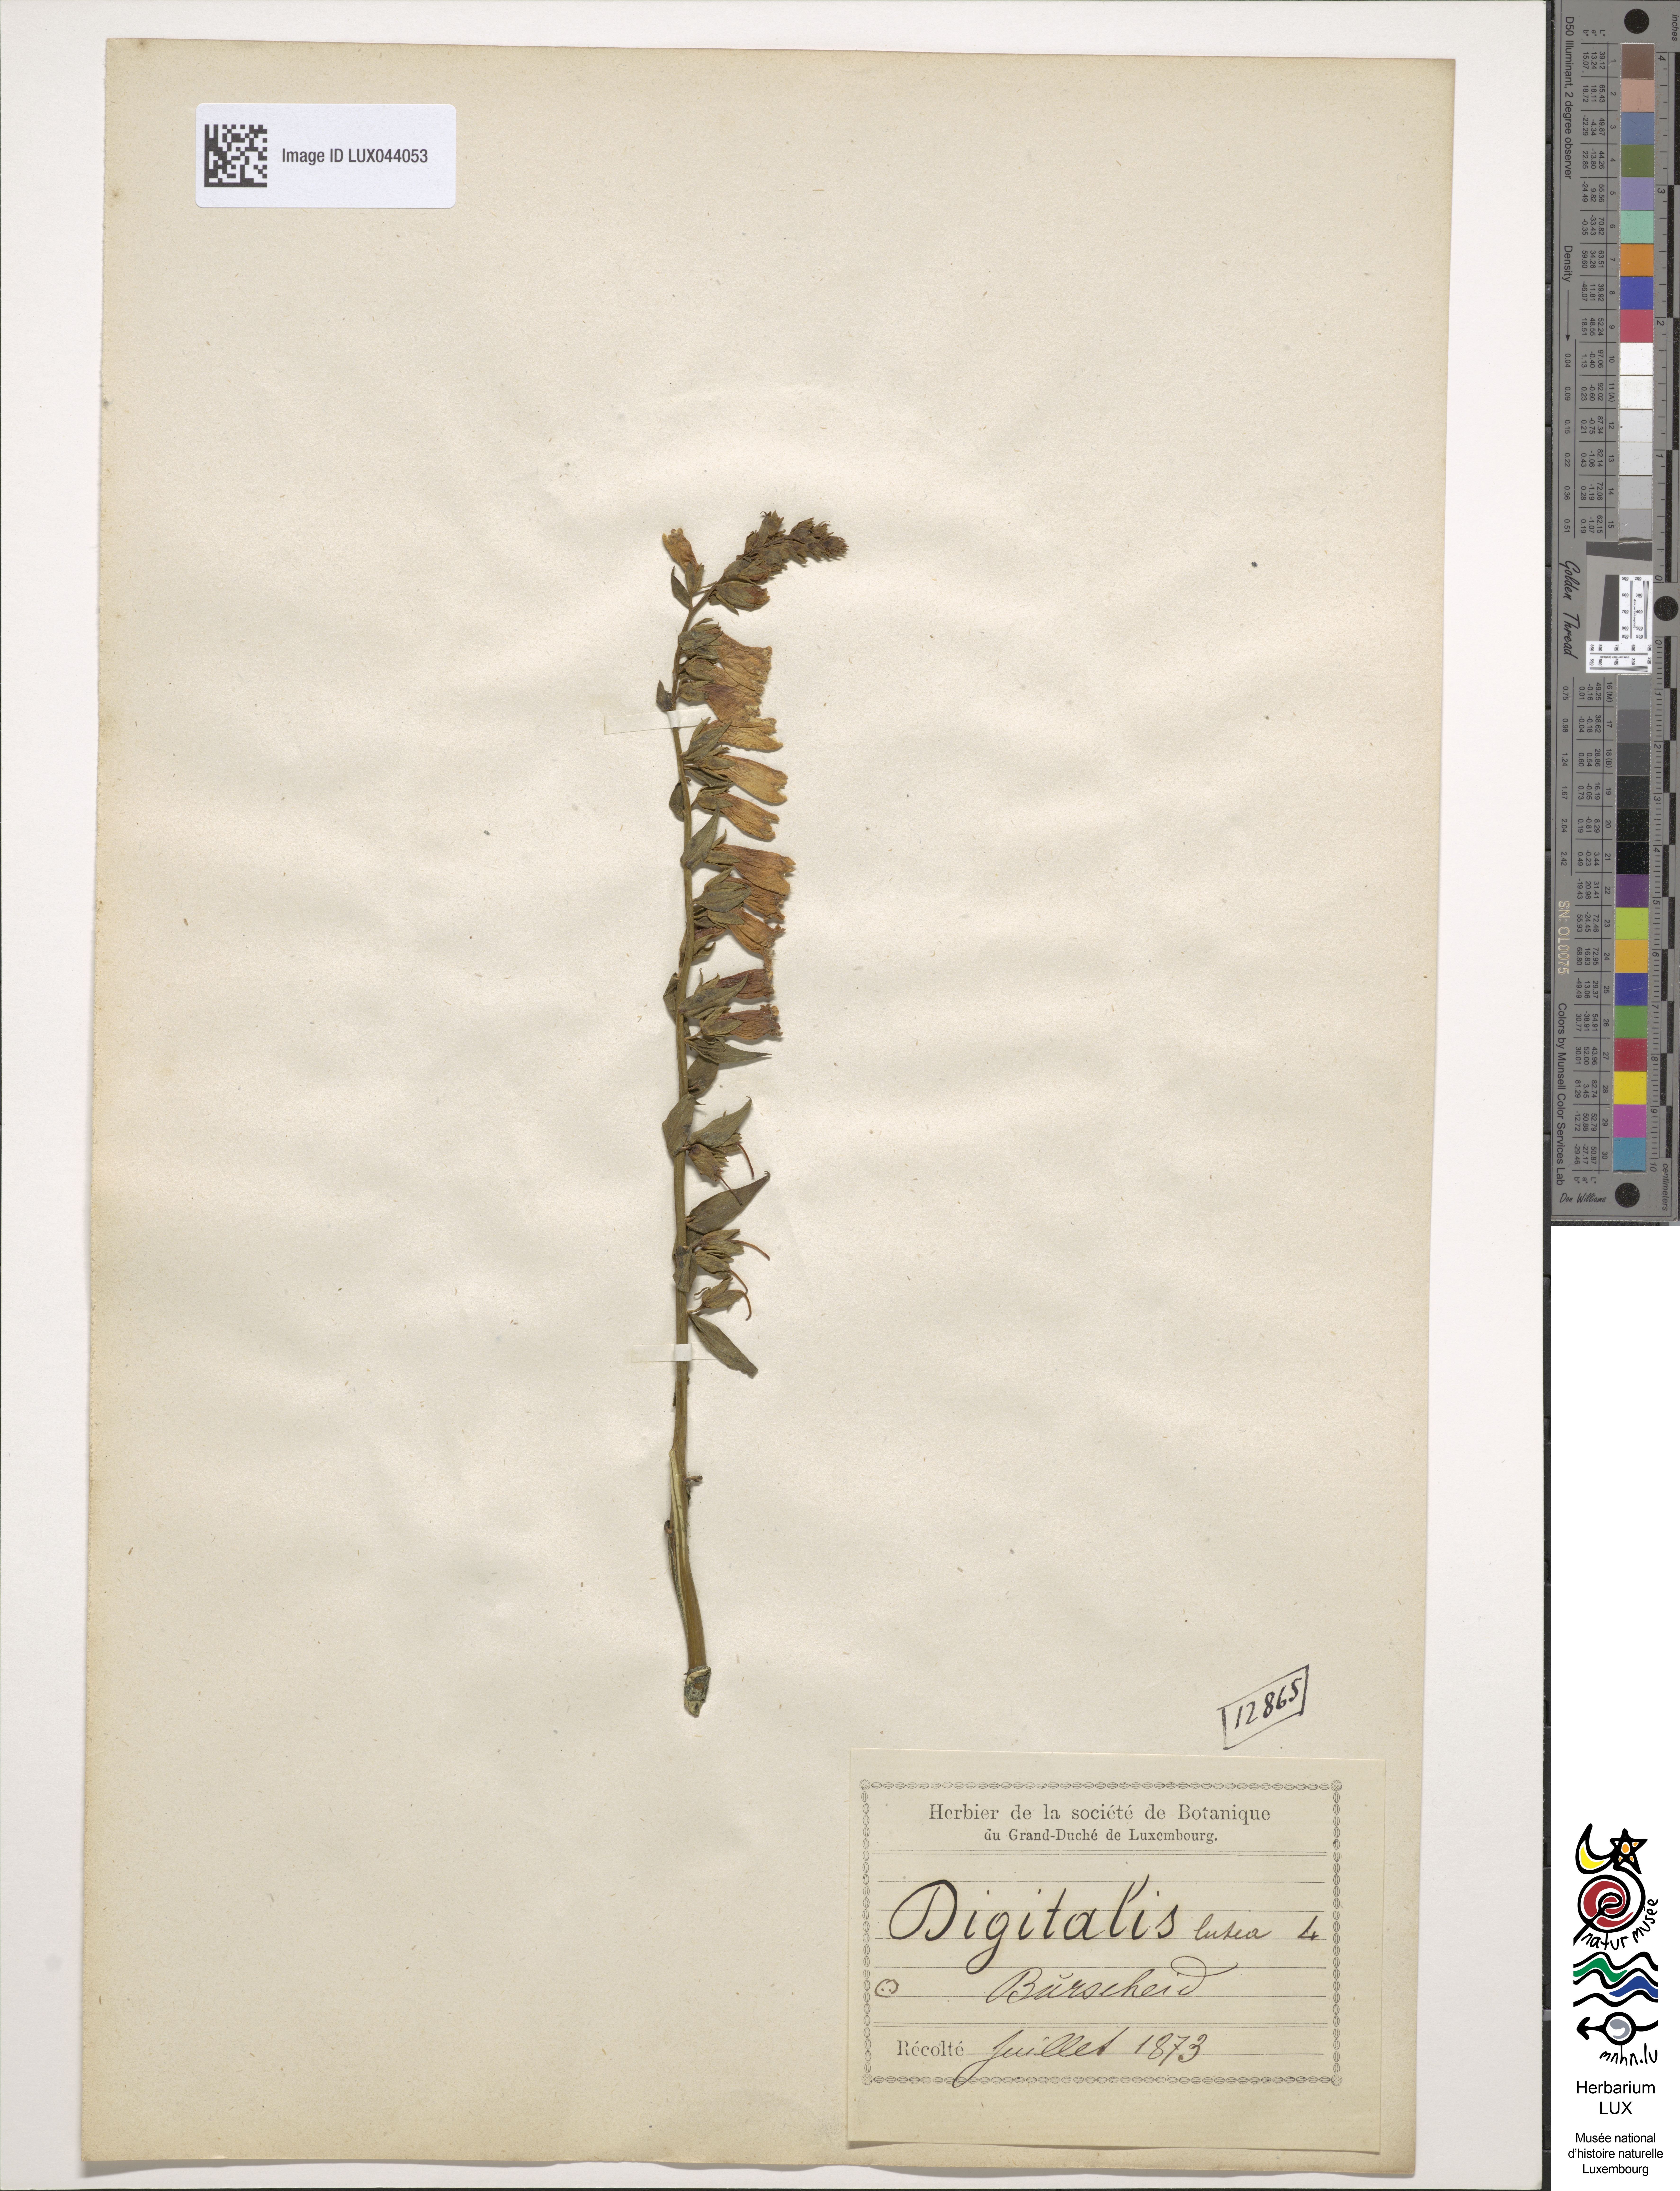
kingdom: Plantae
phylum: Tracheophyta
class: Magnoliopsida
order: Lamiales
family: Plantaginaceae
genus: Digitalis
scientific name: Digitalis lutea
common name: Straw foxglove
